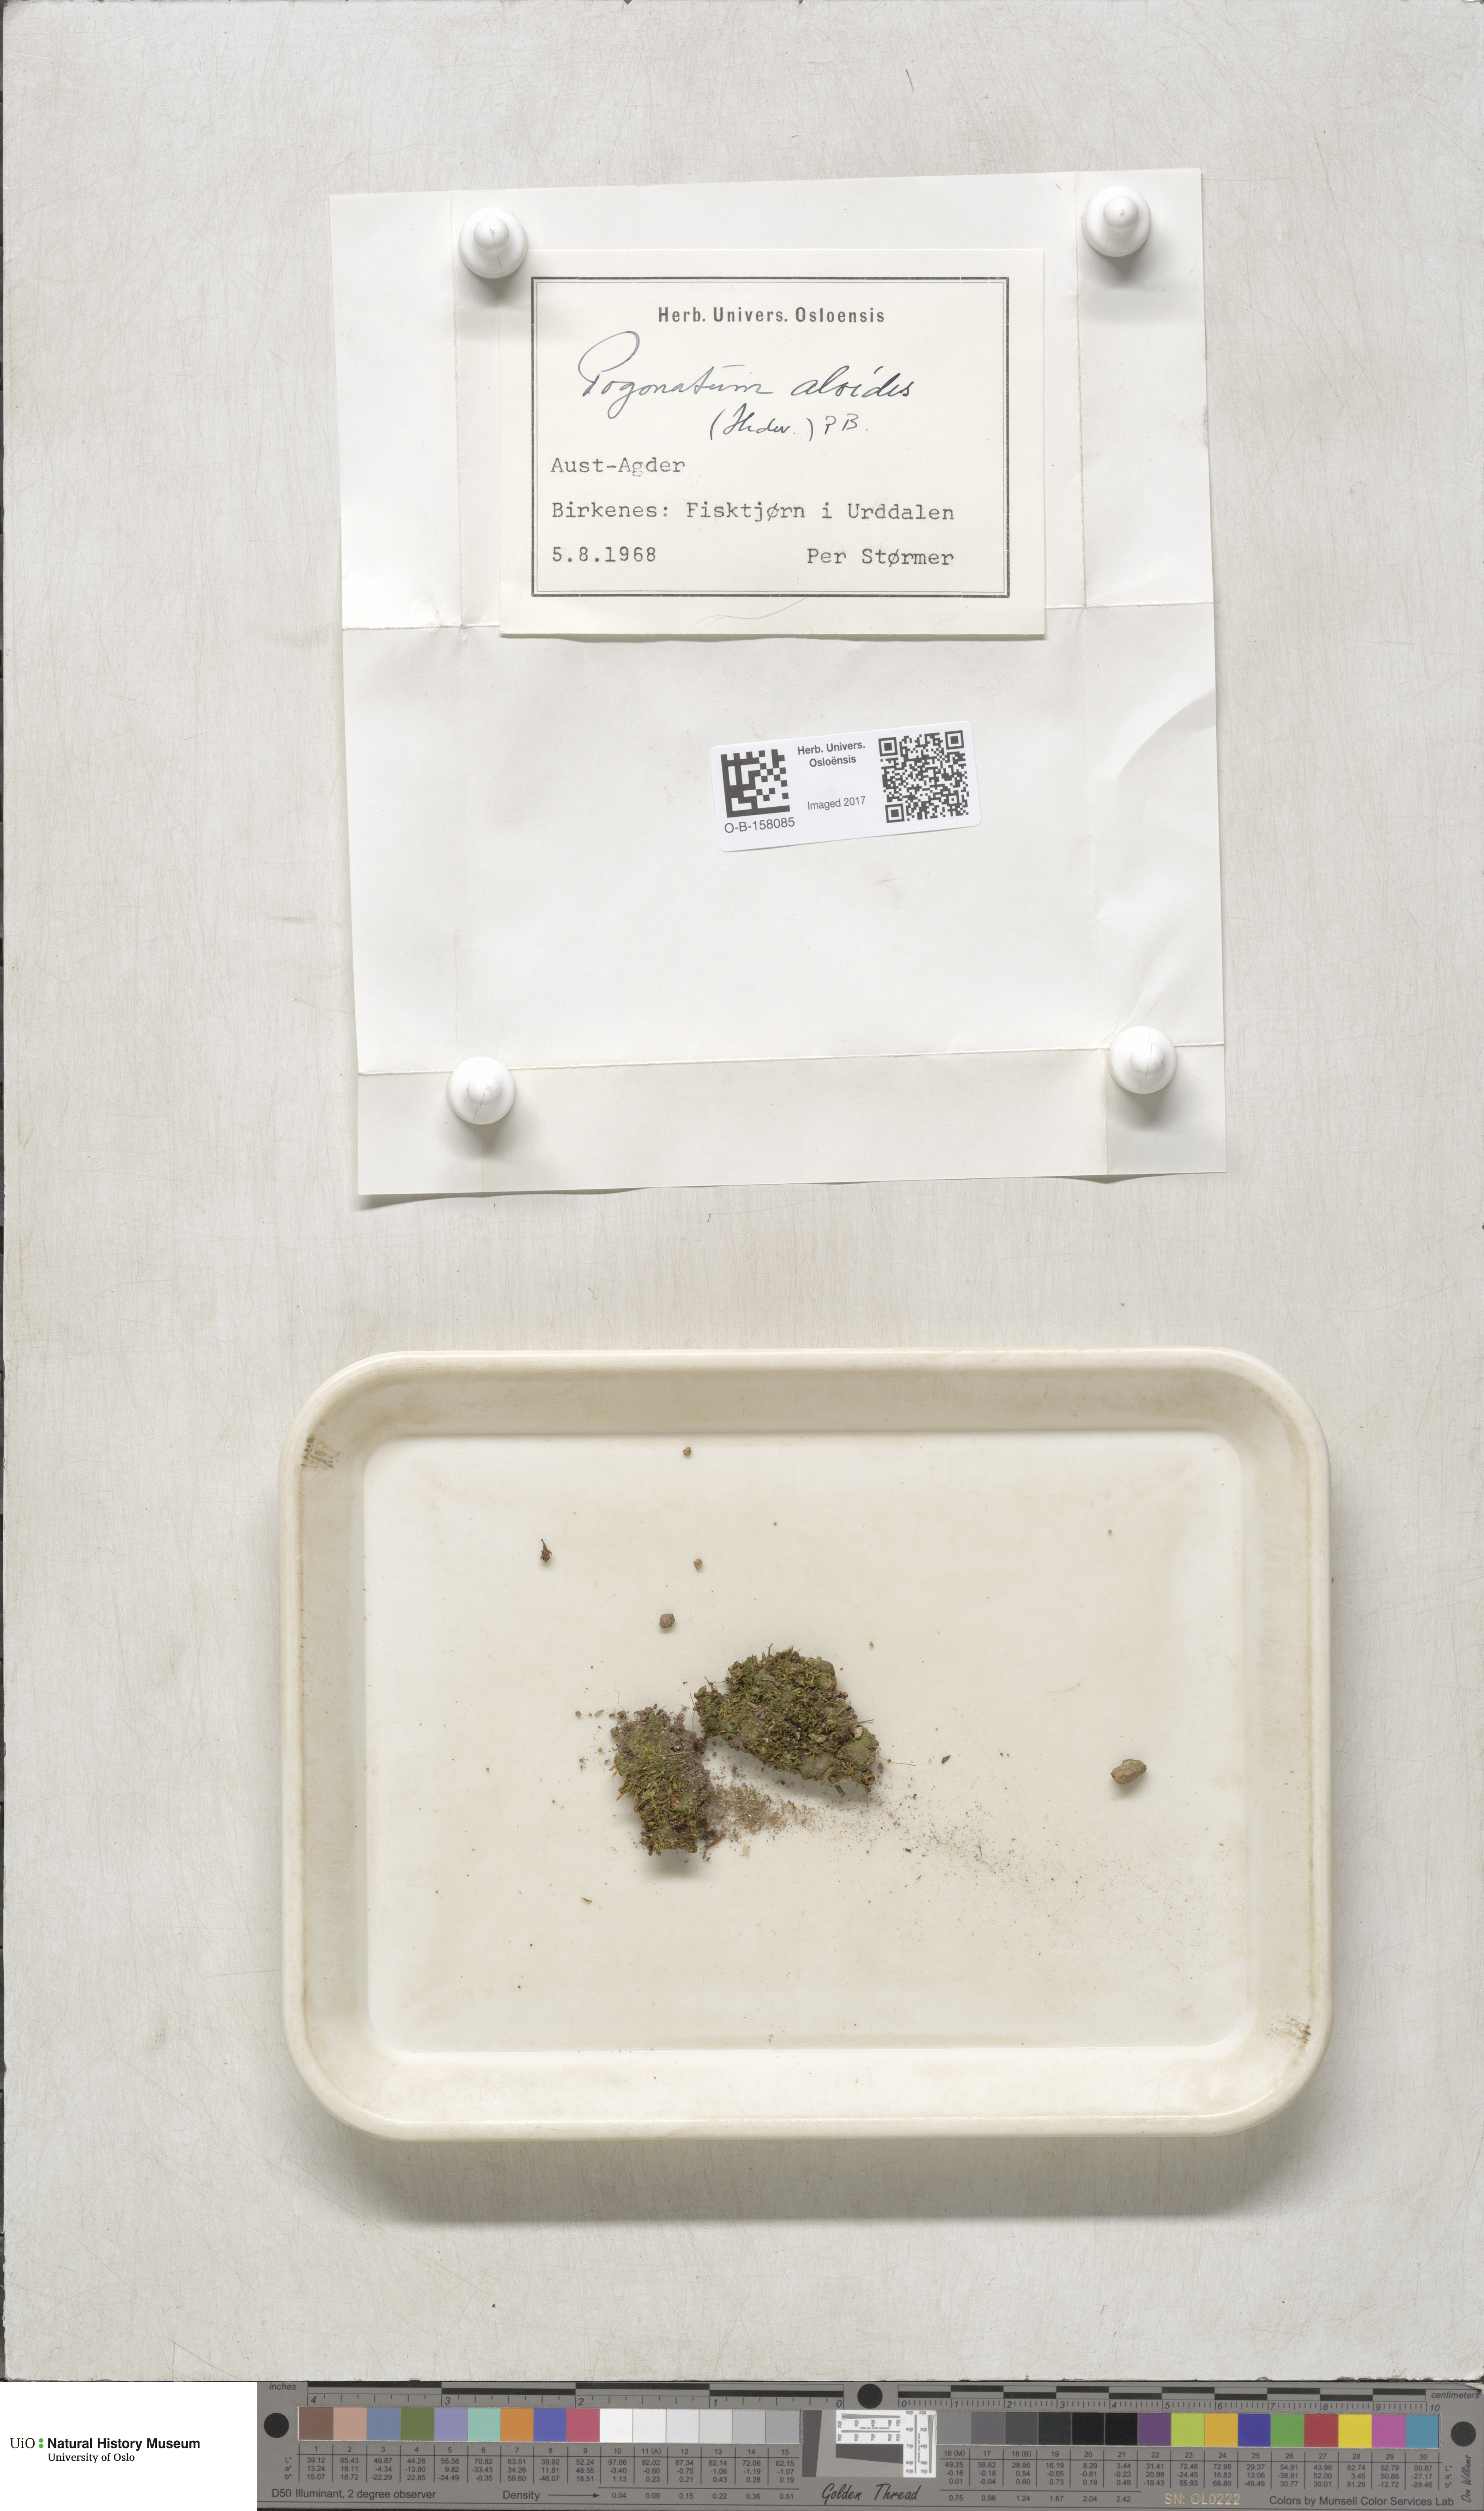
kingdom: Plantae
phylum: Bryophyta
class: Polytrichopsida
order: Polytrichales
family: Polytrichaceae
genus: Pogonatum
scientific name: Pogonatum aloides
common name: Aloe haircap
